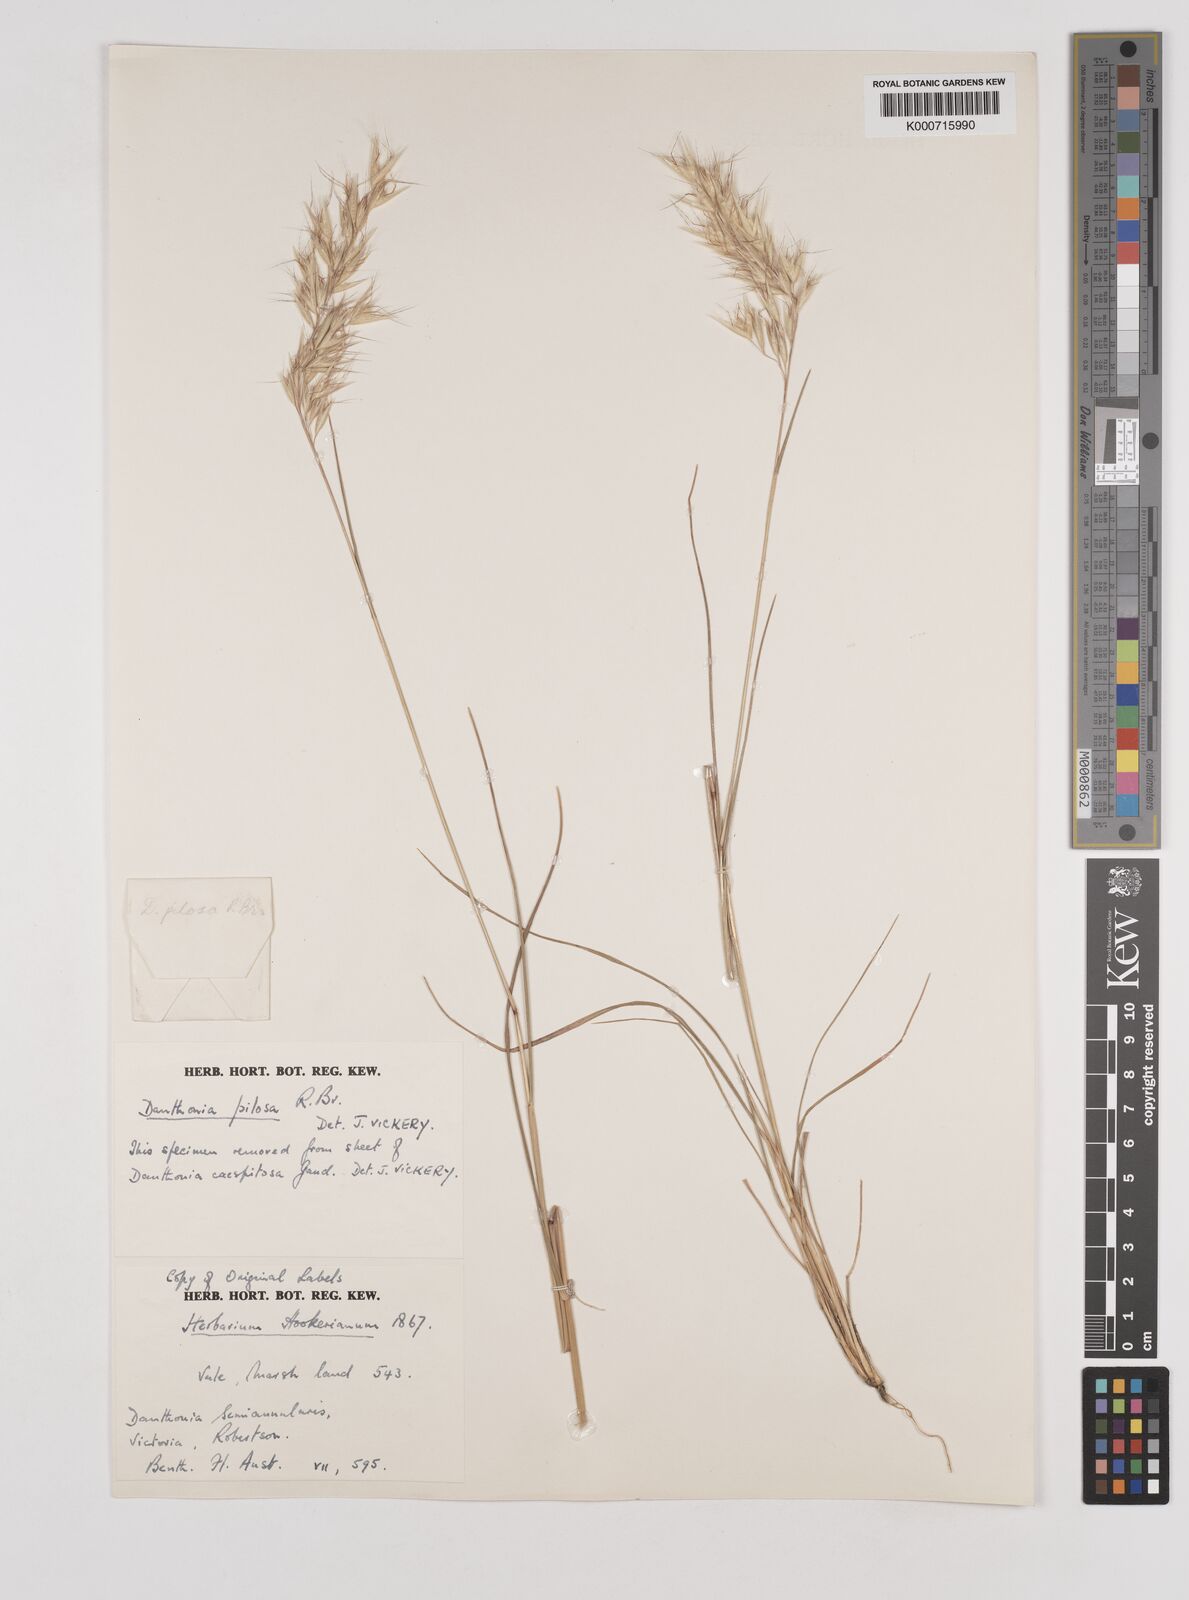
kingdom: Plantae
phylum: Tracheophyta
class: Liliopsida
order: Poales
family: Poaceae
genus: Rytidosperma
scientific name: Rytidosperma pilosum
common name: Hairy wallaby grass
